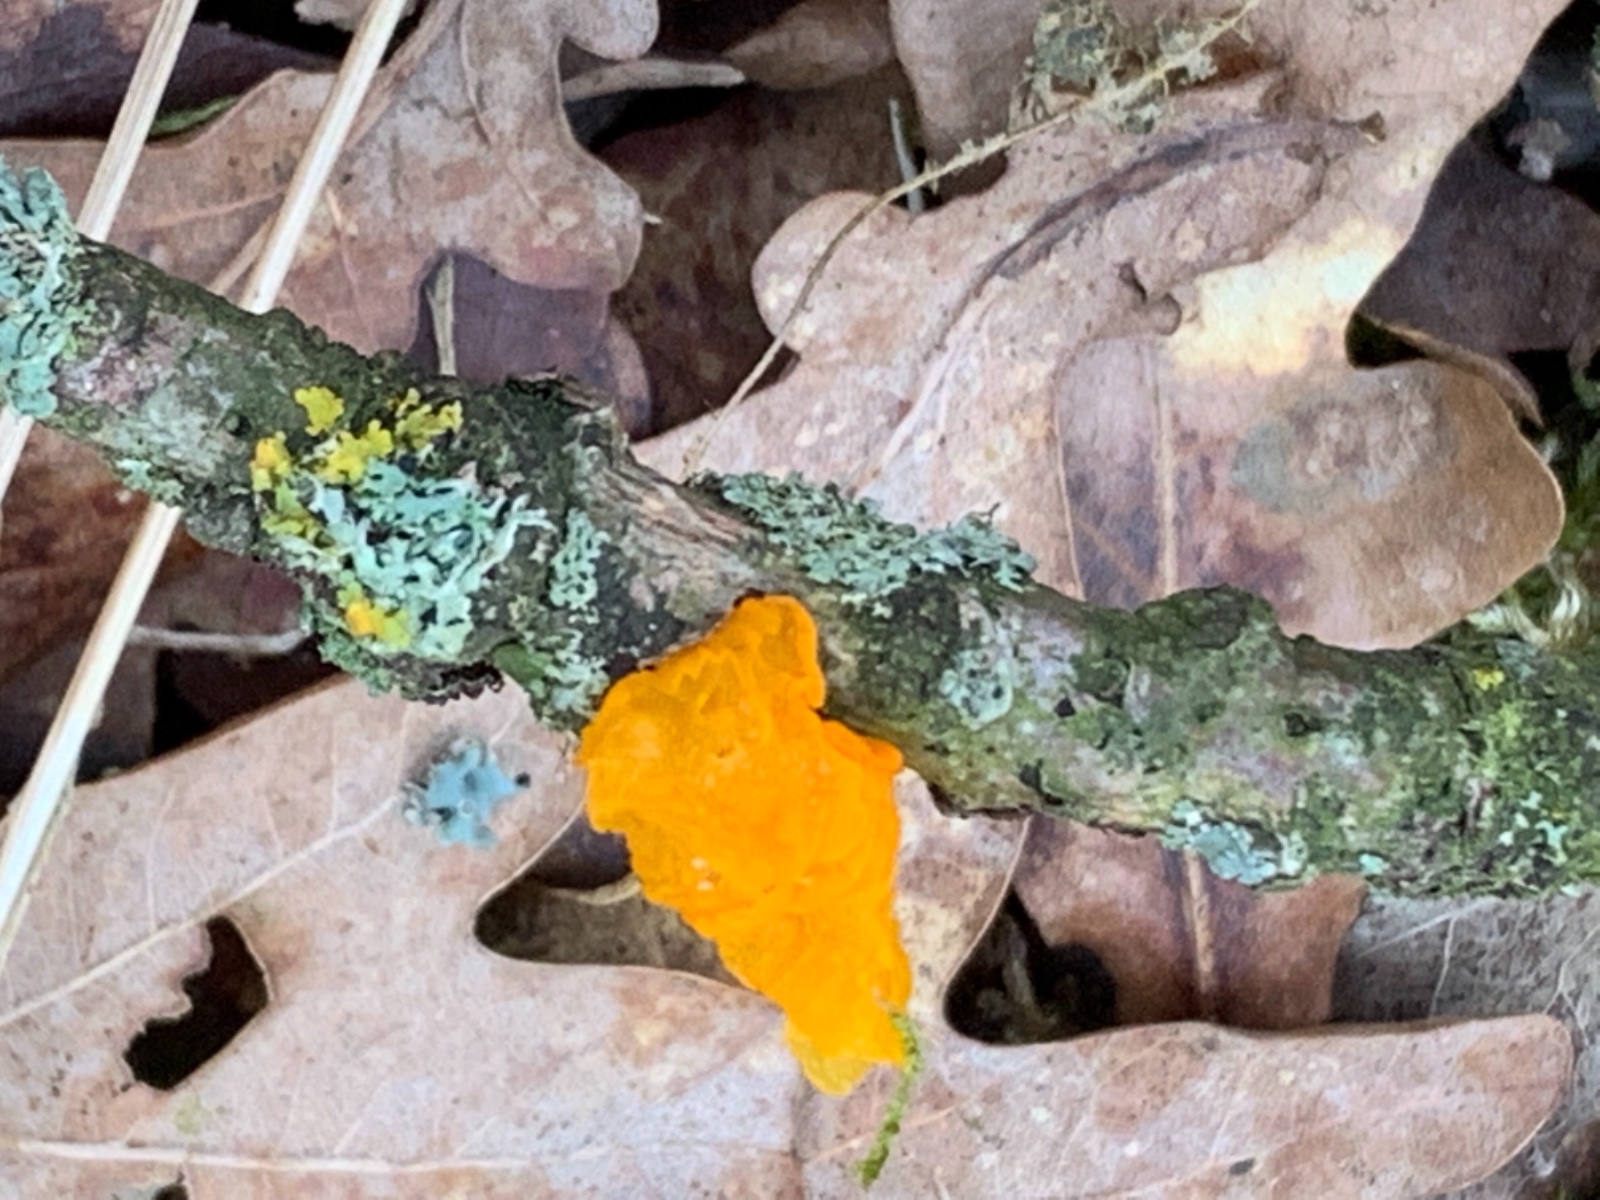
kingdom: Fungi
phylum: Basidiomycota
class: Tremellomycetes
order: Tremellales
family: Tremellaceae
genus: Tremella
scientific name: Tremella mesenterica
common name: gul bævresvamp
